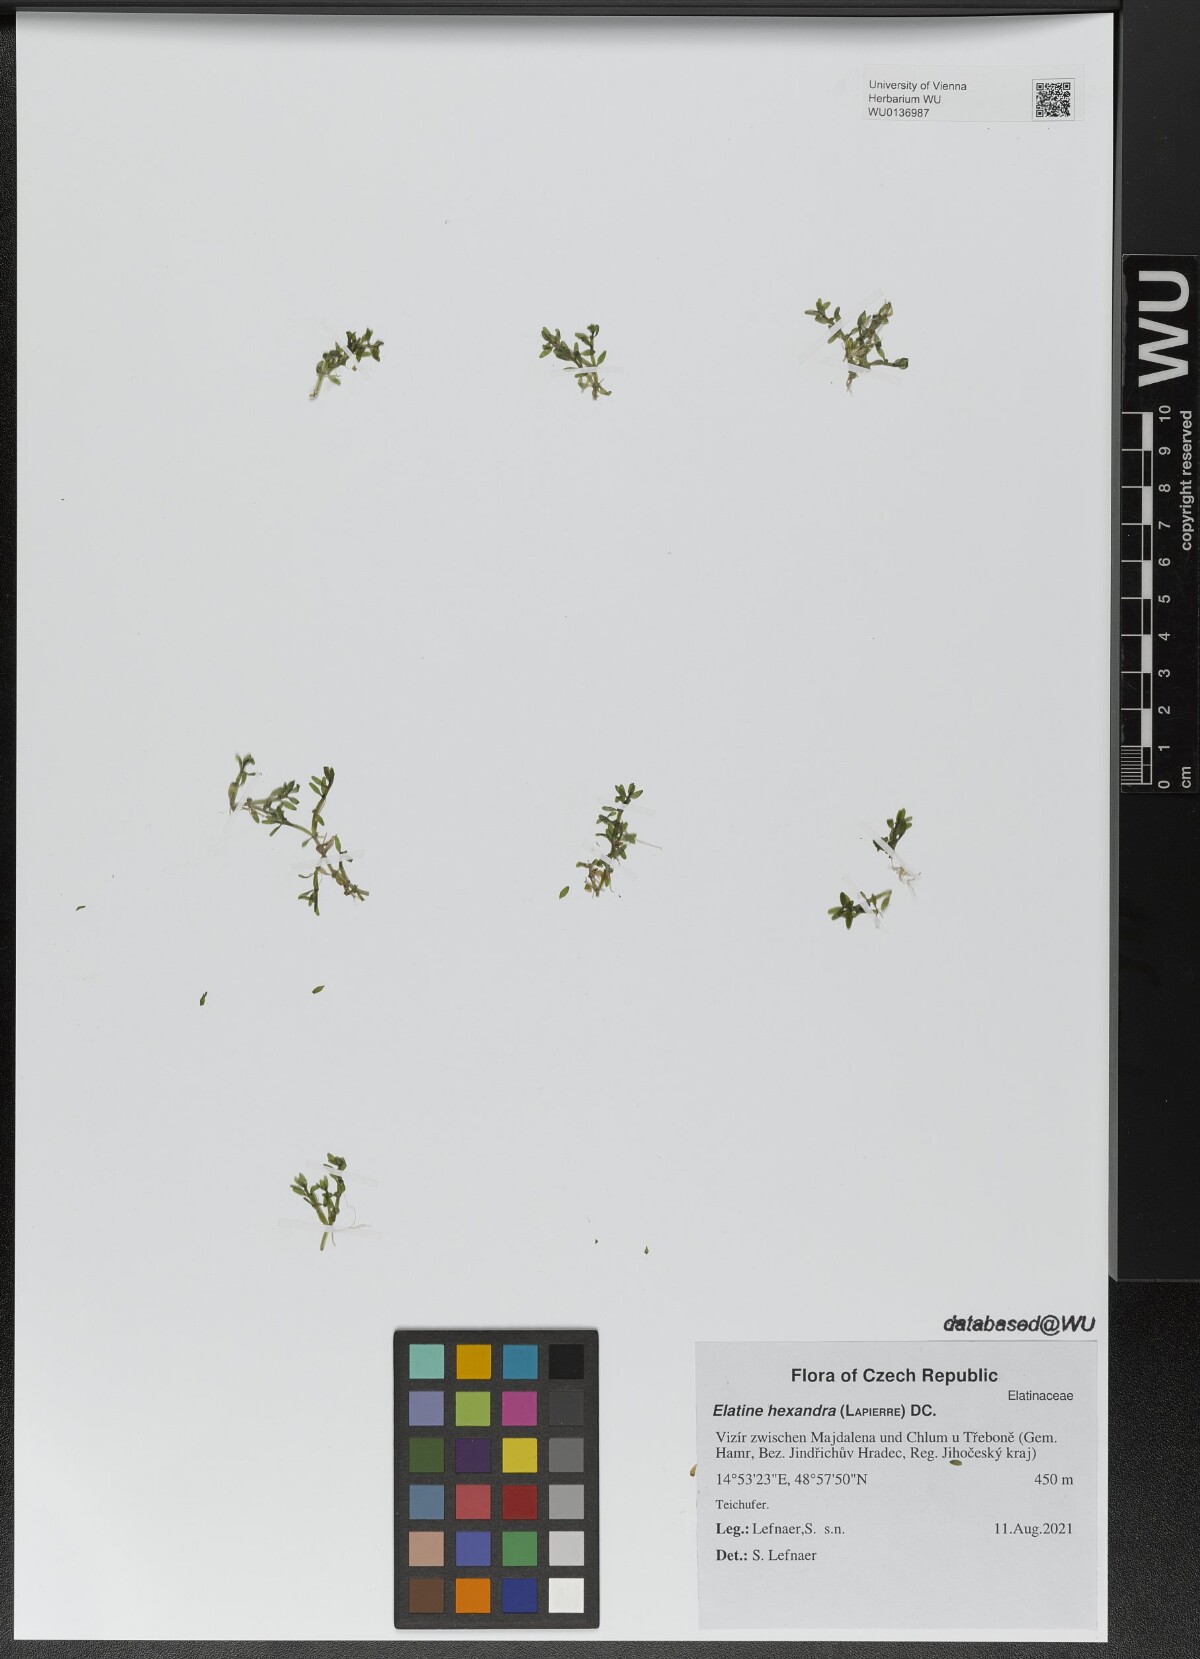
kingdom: Plantae
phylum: Tracheophyta
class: Magnoliopsida
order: Malpighiales
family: Elatinaceae
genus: Elatine
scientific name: Elatine hexandra
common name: Six-stamened waterwort
